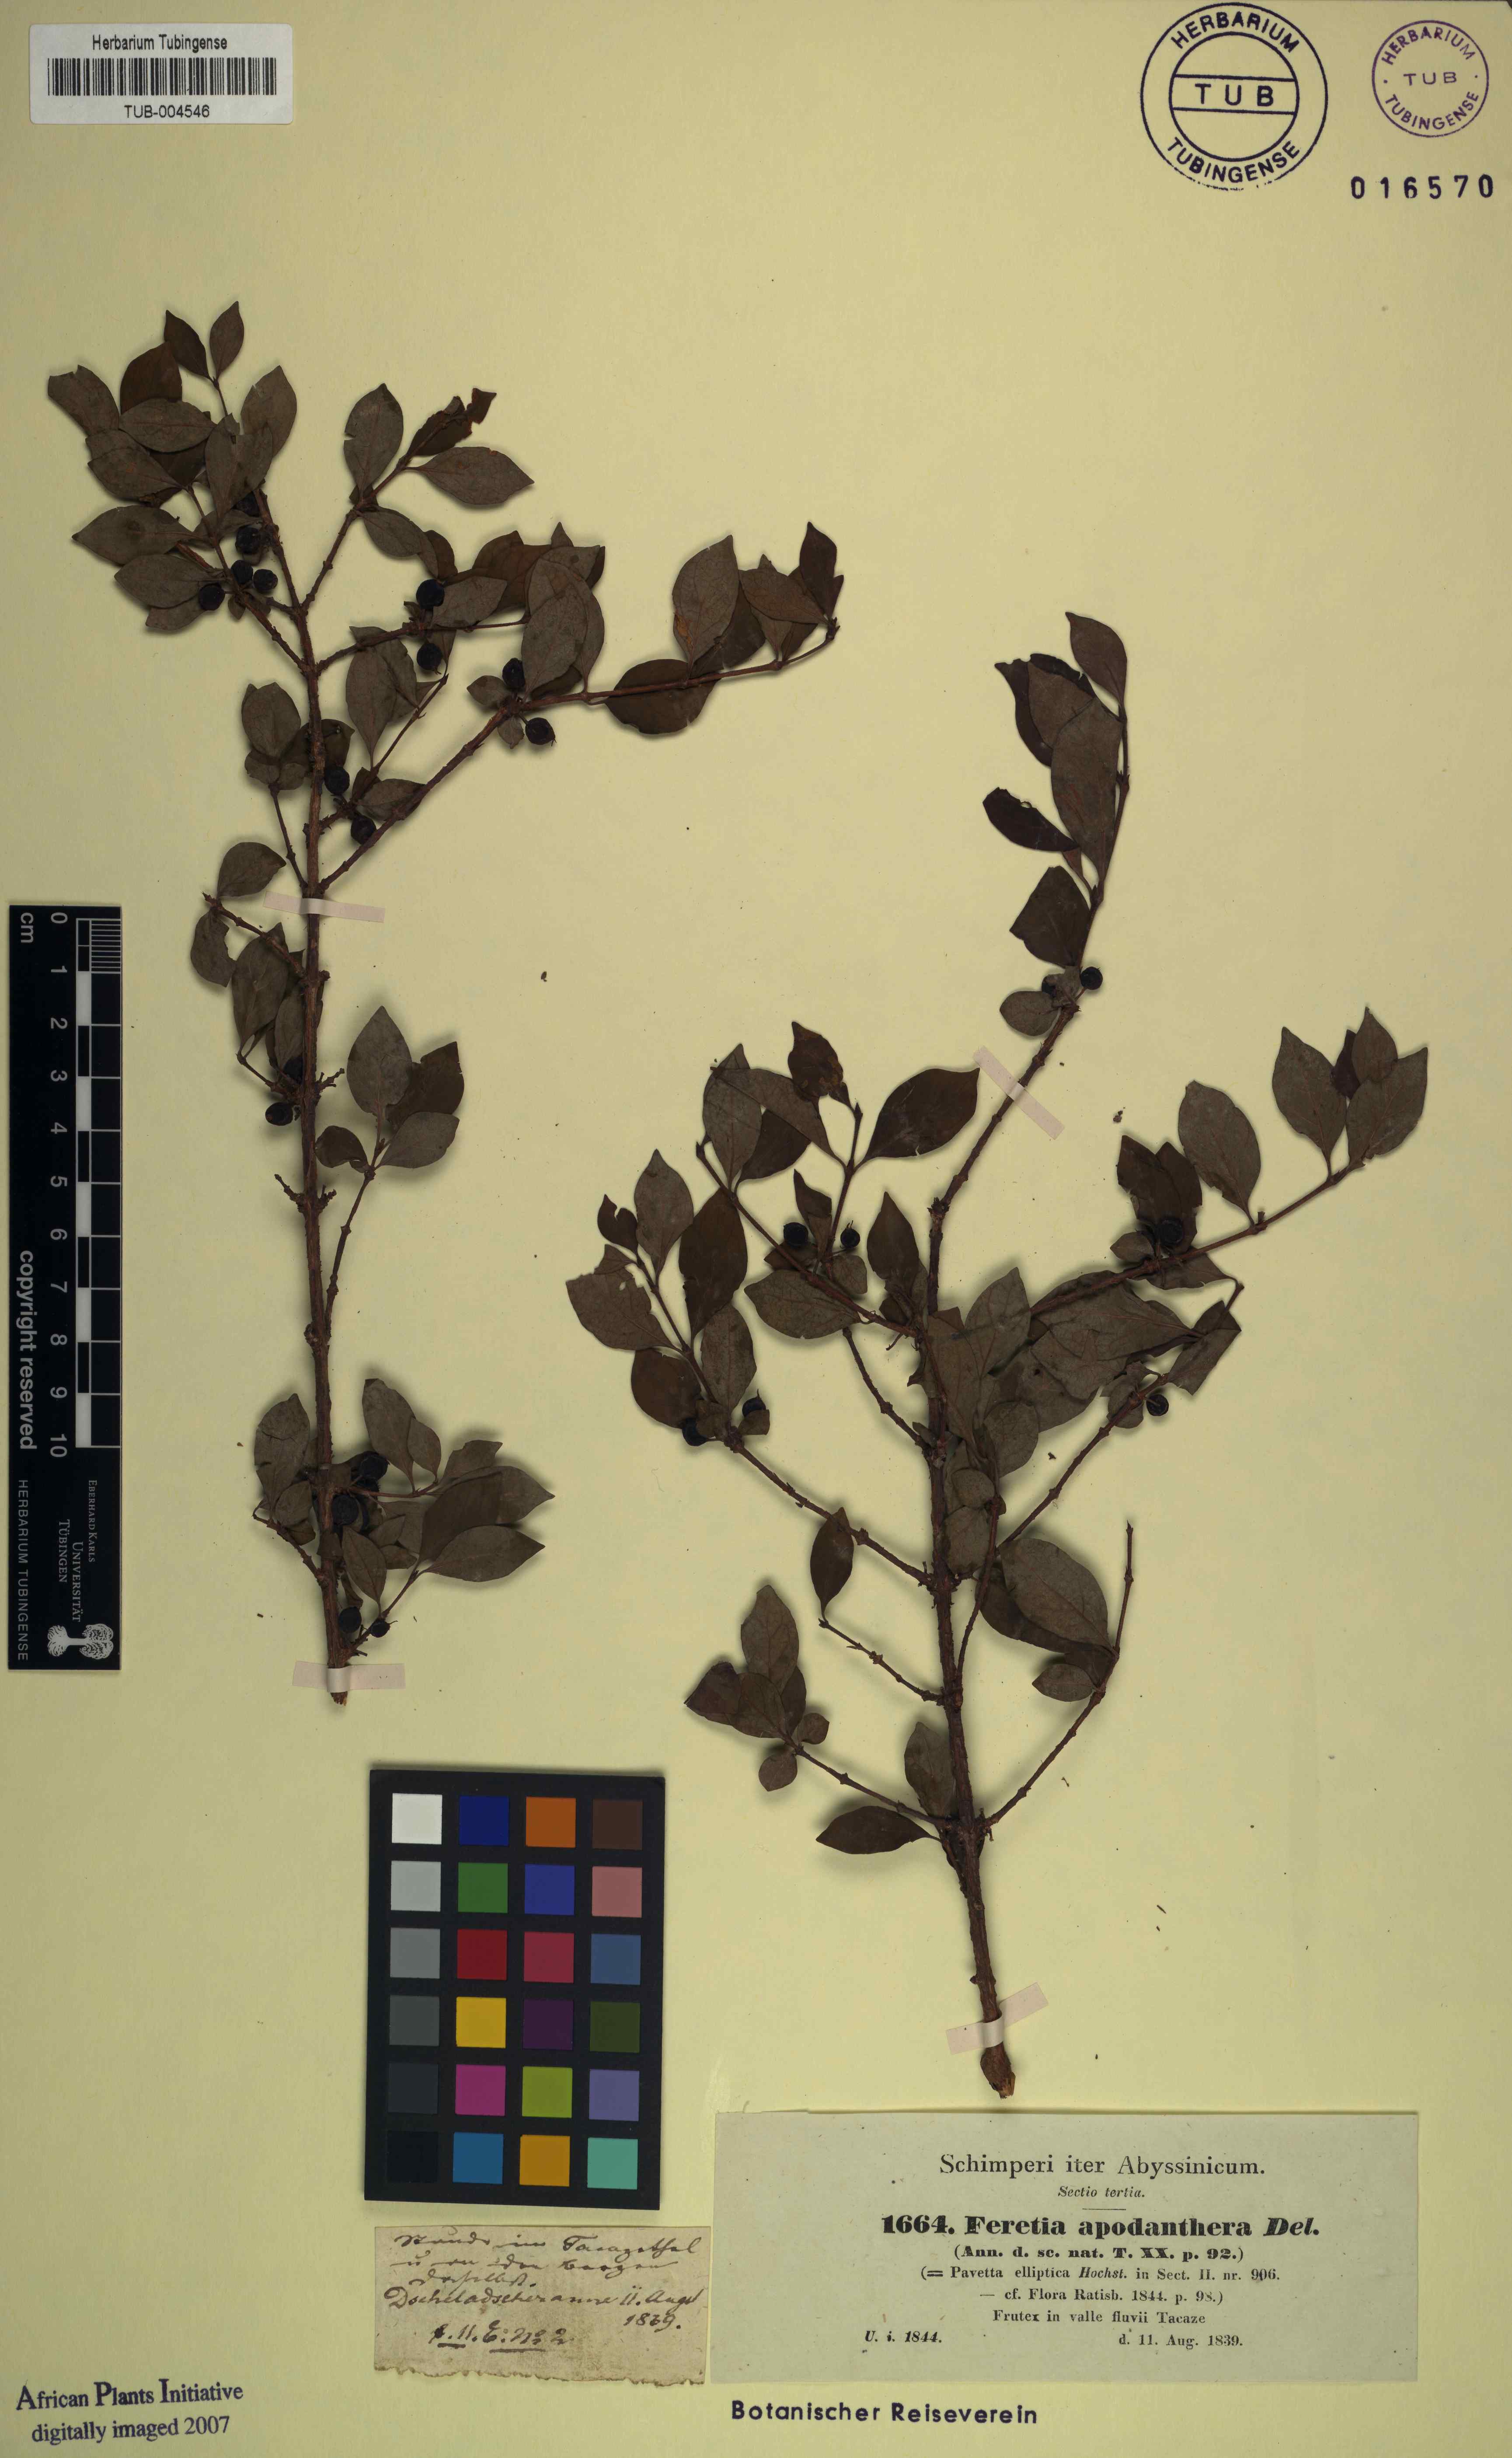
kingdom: Plantae
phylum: Tracheophyta
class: Magnoliopsida
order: Gentianales
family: Rubiaceae
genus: Feretia
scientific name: Feretia apodanthera
